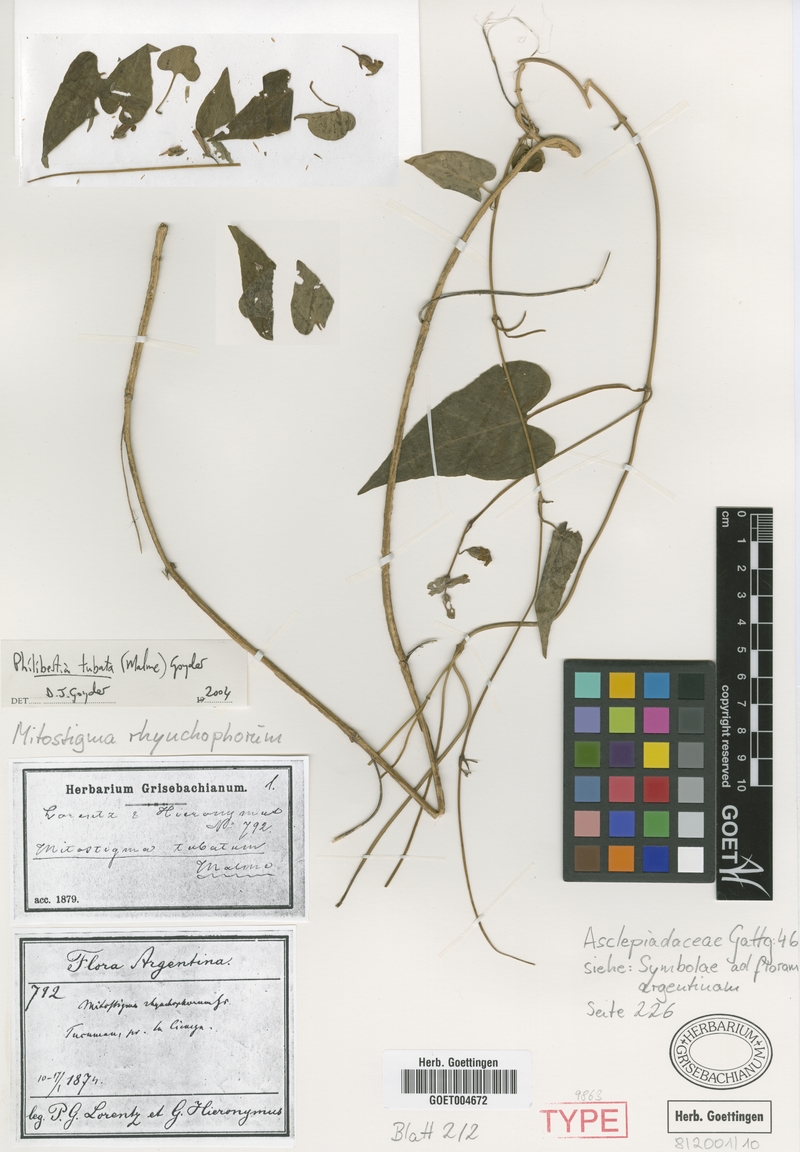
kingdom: Plantae
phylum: Tracheophyta
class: Magnoliopsida
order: Gentianales
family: Apocynaceae
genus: Philibertia
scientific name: Philibertia tubata
